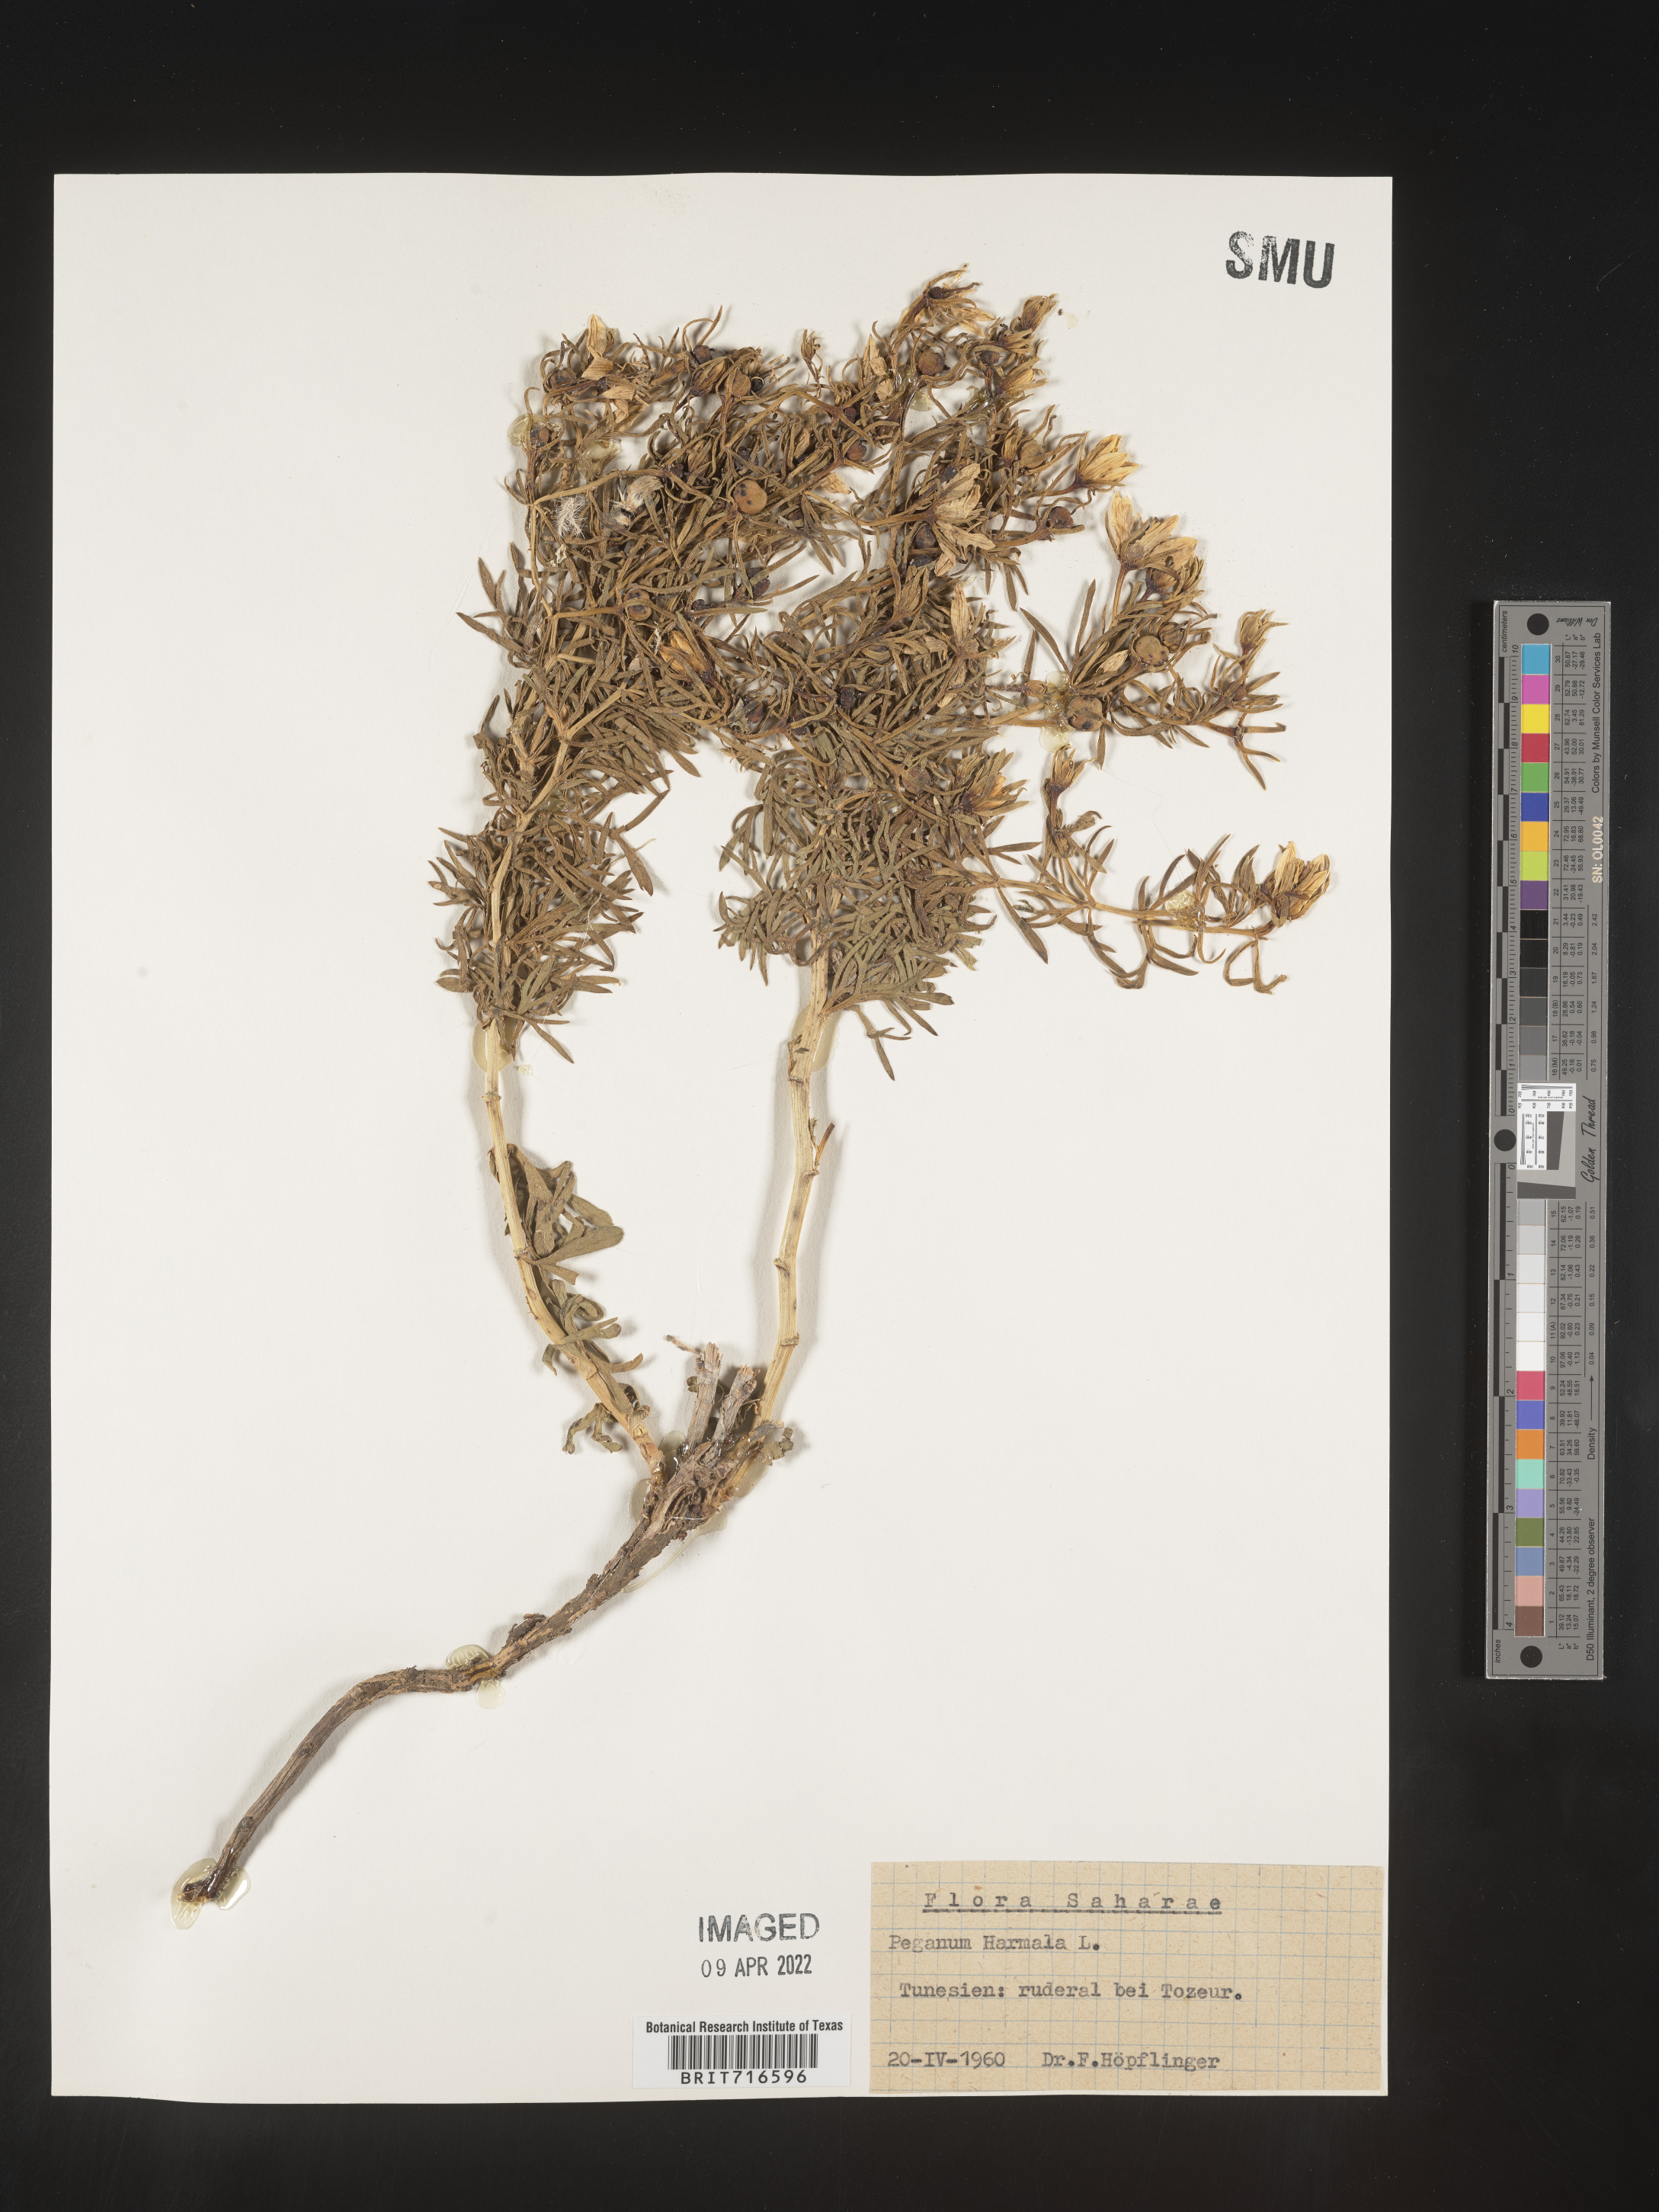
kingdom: Plantae
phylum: Tracheophyta
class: Magnoliopsida
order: Sapindales
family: Tetradiclidaceae
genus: Peganum
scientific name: Peganum
